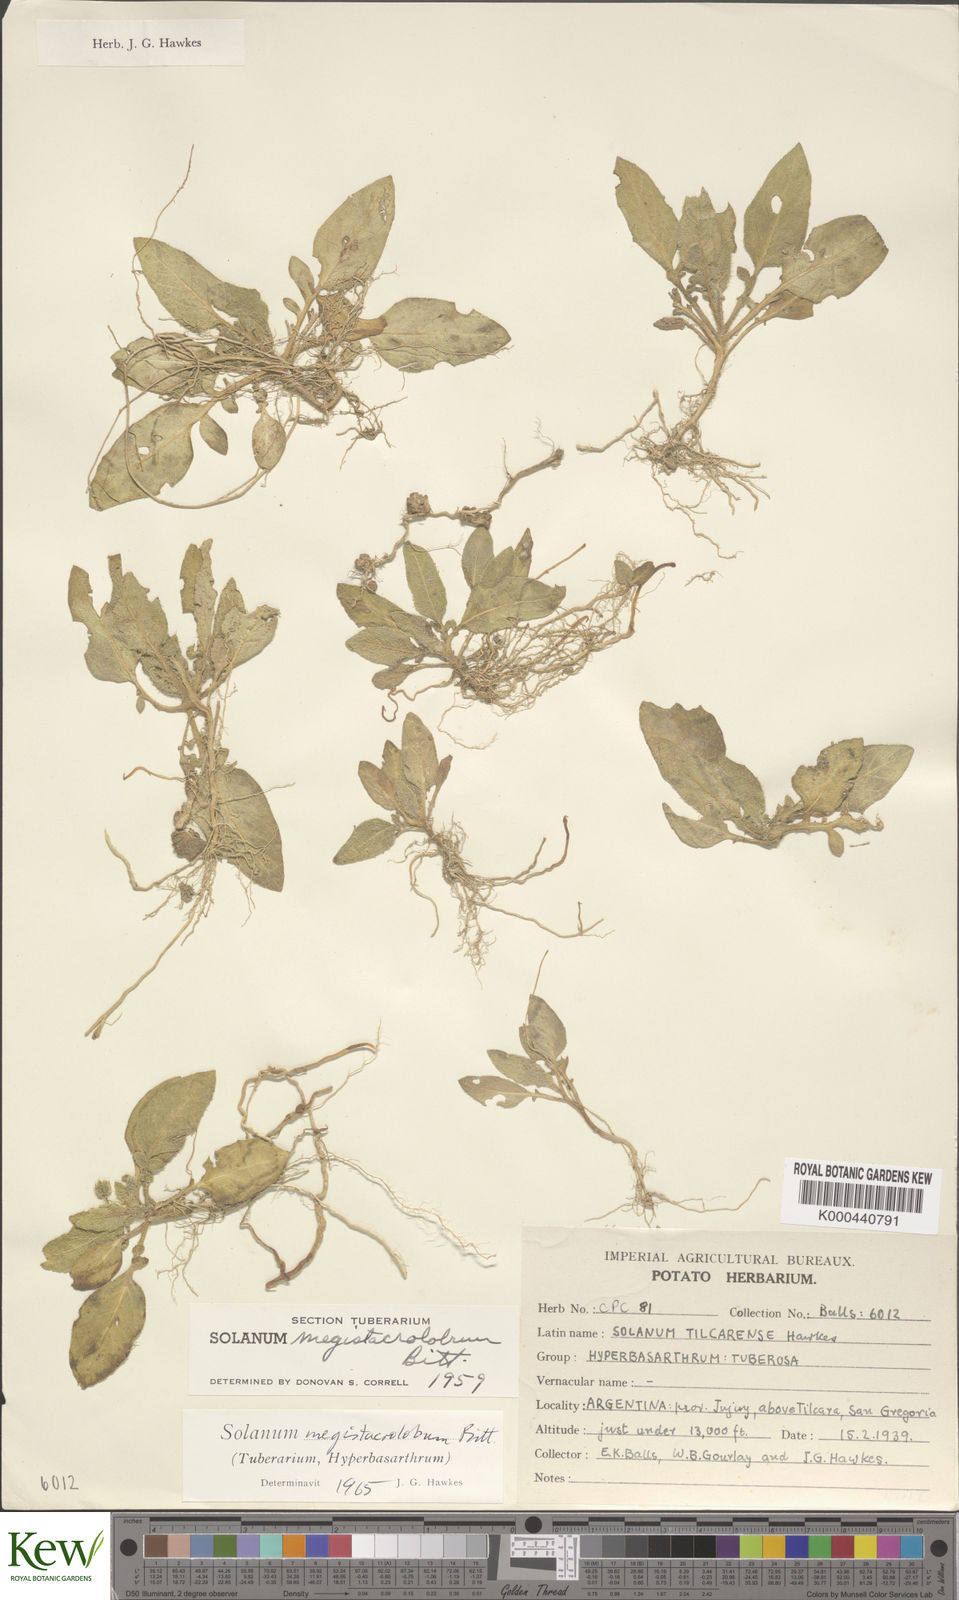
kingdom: Plantae
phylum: Tracheophyta
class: Magnoliopsida
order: Solanales
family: Solanaceae
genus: Solanum
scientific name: Solanum boliviense
